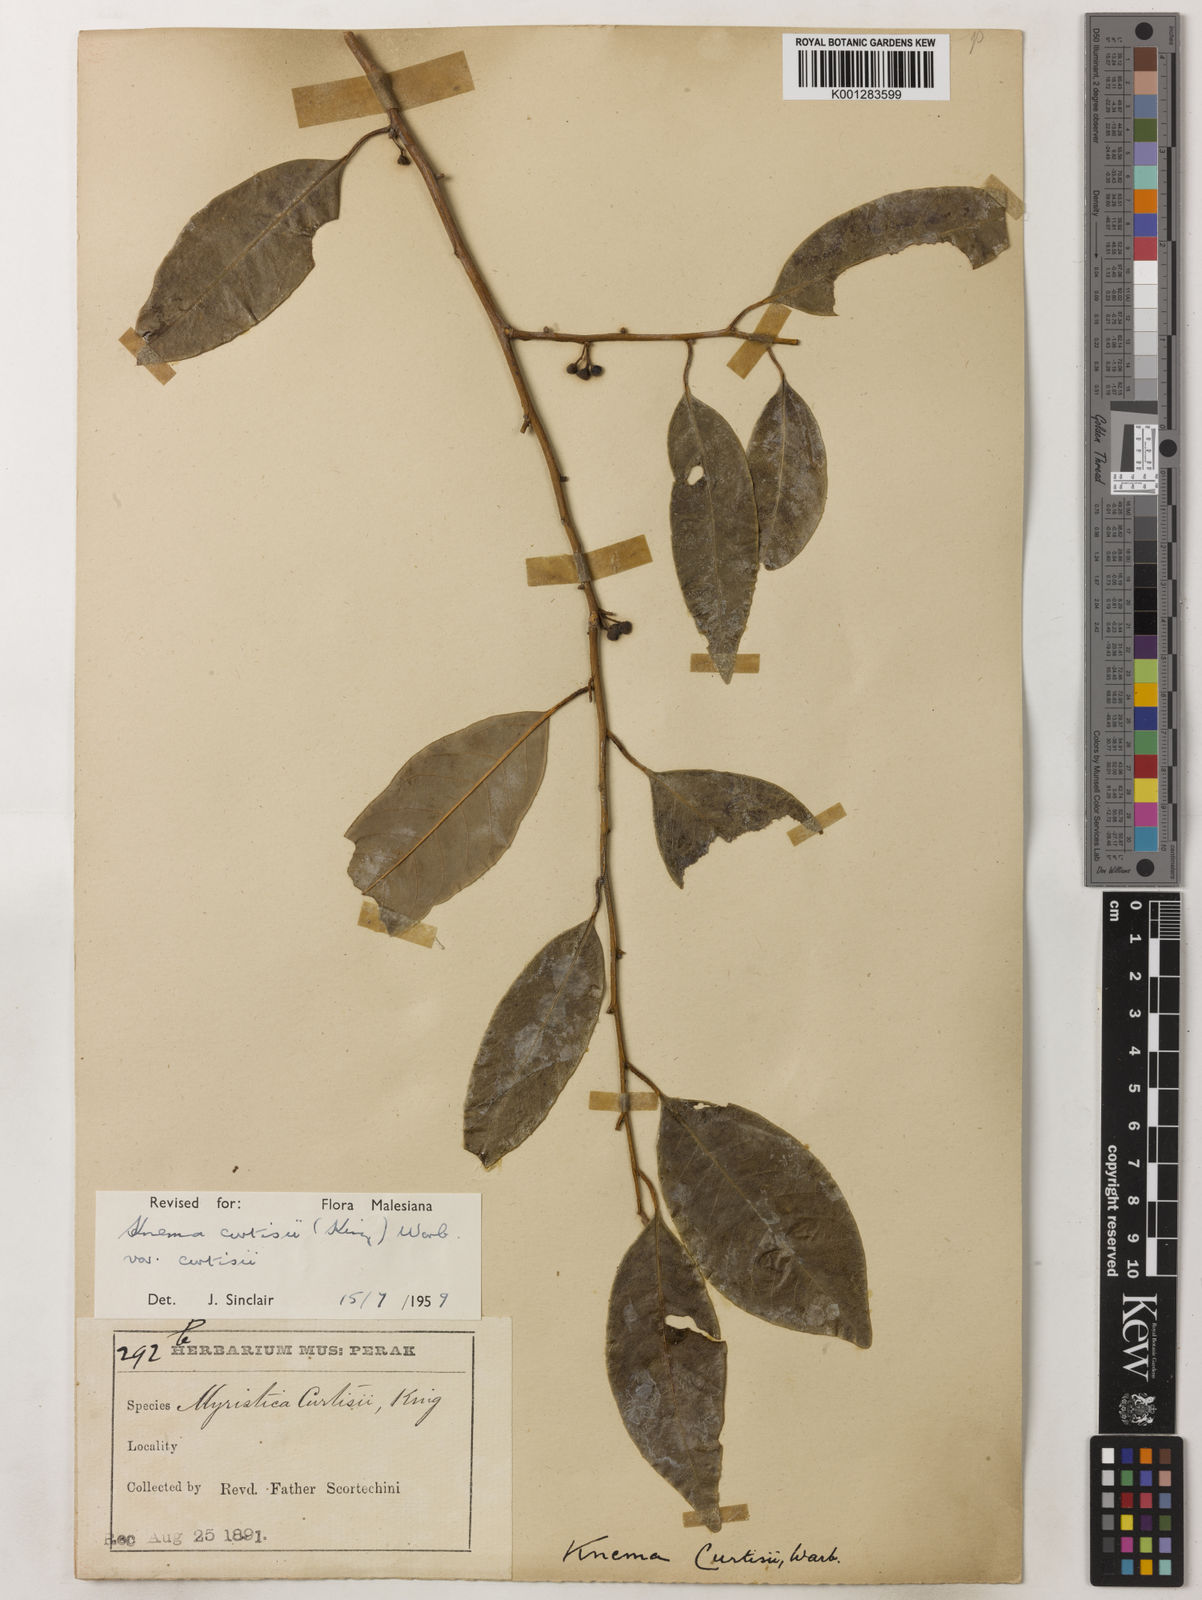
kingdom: Plantae
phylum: Tracheophyta
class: Magnoliopsida
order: Magnoliales
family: Myristicaceae
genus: Knema
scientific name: Knema curtisii
